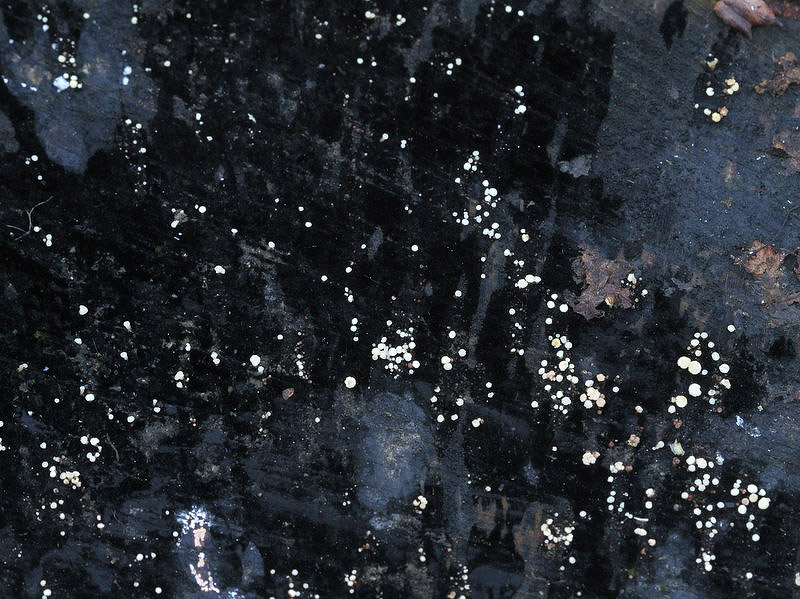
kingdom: Fungi
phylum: Ascomycota
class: Leotiomycetes
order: Helotiales
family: Helotiaceae
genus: Bispora
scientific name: Bispora pallescens
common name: måtte-snitskive
